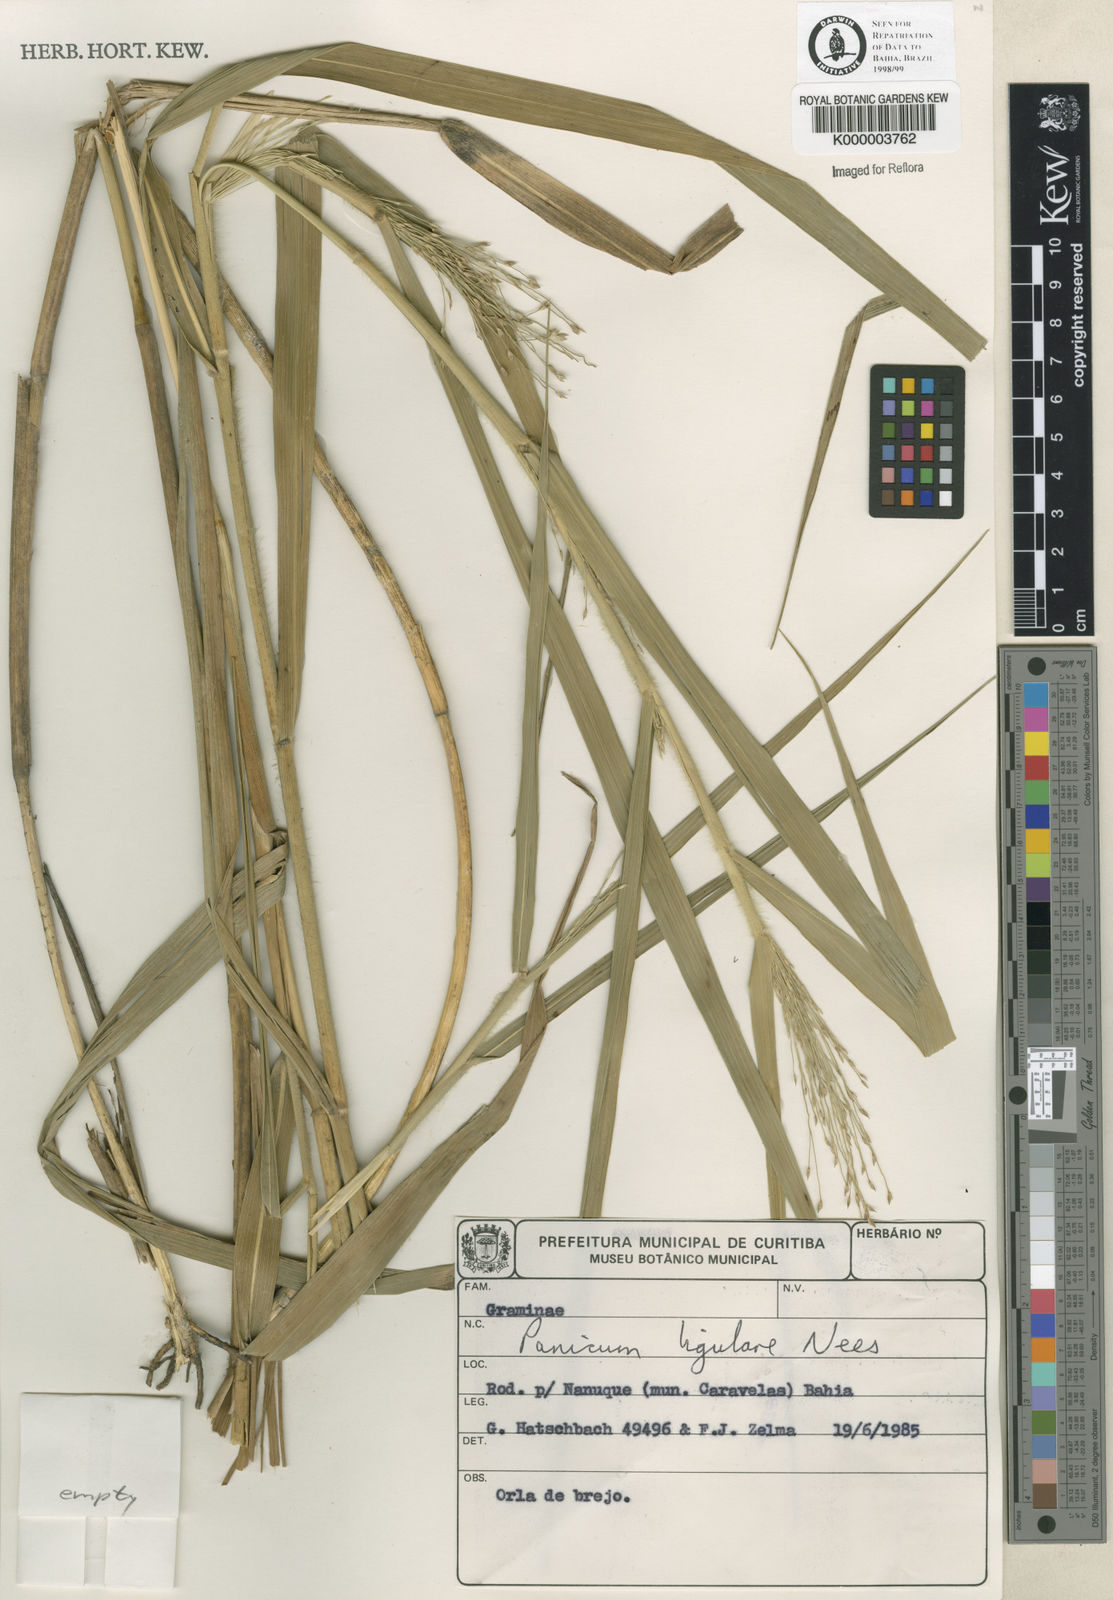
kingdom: Plantae
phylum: Tracheophyta
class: Liliopsida
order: Poales
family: Poaceae
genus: Panicum
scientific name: Panicum
